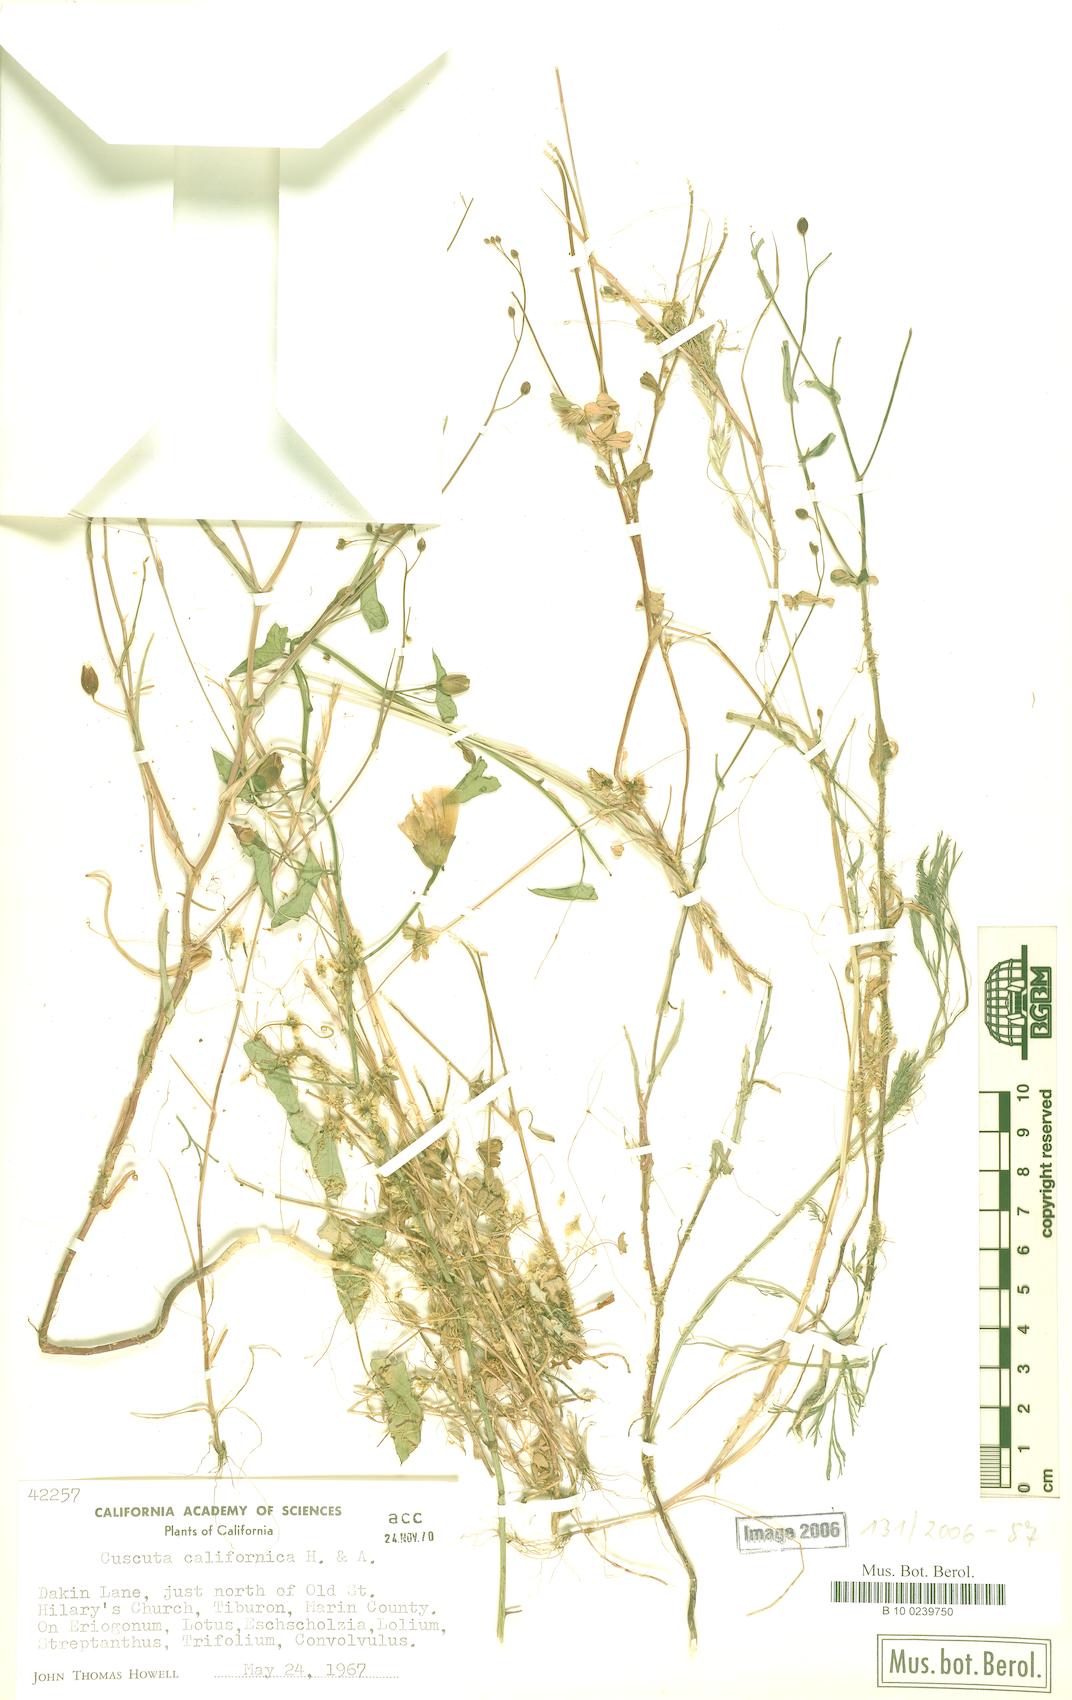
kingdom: Plantae
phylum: Tracheophyta
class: Magnoliopsida
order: Solanales
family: Convolvulaceae
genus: Cuscuta
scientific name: Cuscuta californica
